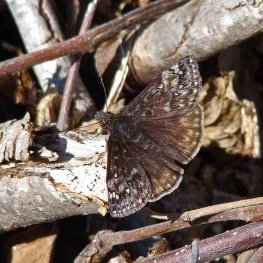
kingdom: Animalia
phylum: Arthropoda
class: Insecta
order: Lepidoptera
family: Hesperiidae
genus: Gesta
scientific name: Gesta
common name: Juvenal's Duskywing
